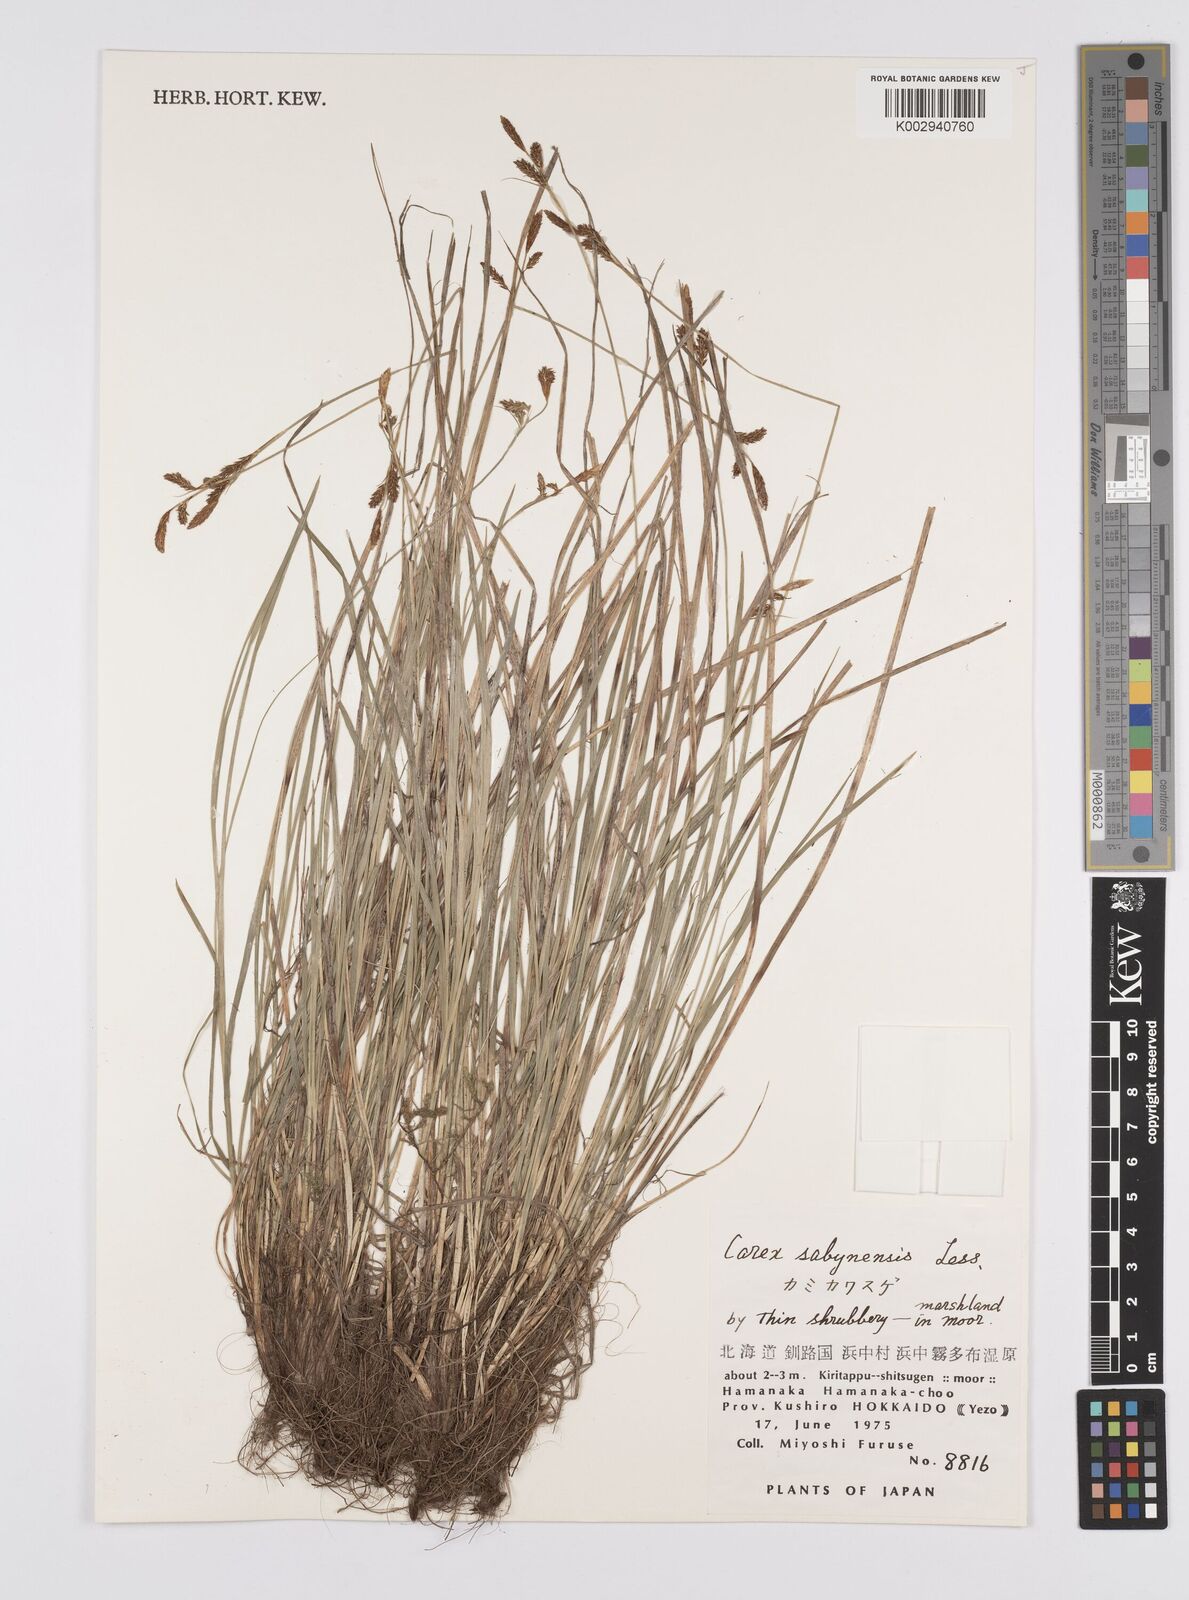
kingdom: Plantae
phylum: Tracheophyta
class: Liliopsida
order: Poales
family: Cyperaceae
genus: Carex
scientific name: Carex umbrosa
